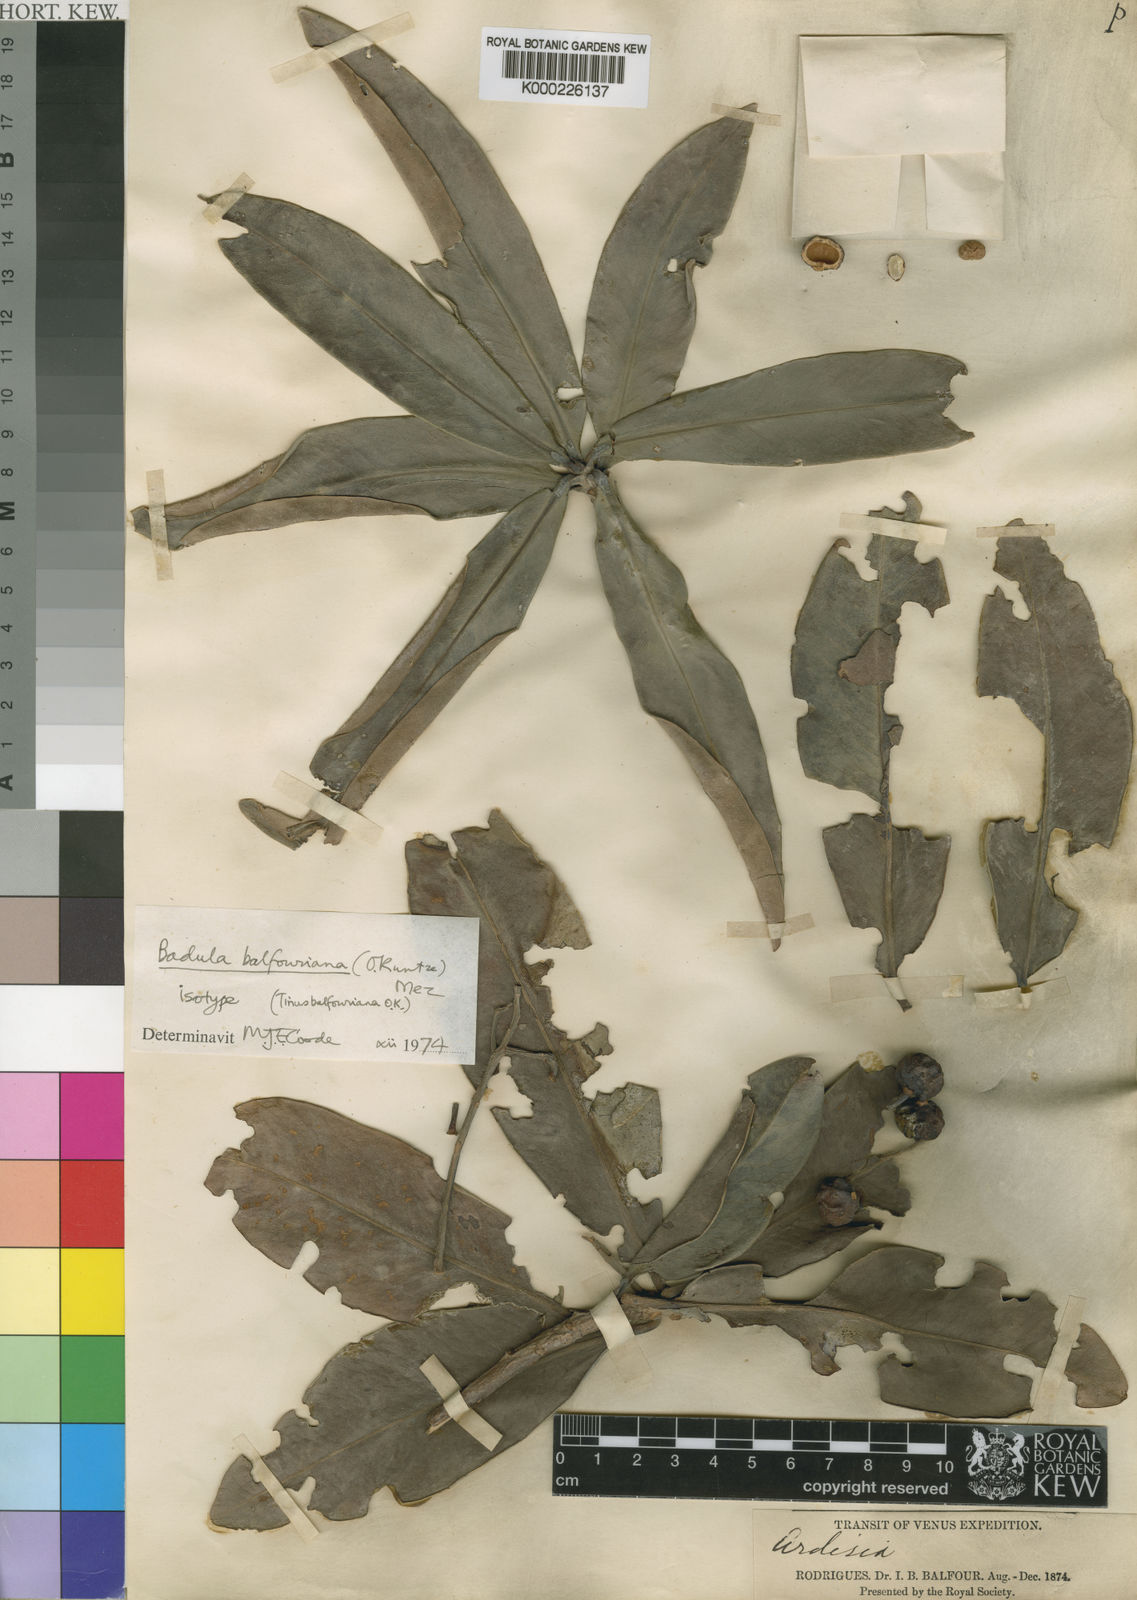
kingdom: Plantae
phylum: Tracheophyta
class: Magnoliopsida
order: Ericales
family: Primulaceae
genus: Badula
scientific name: Badula balfouriana
